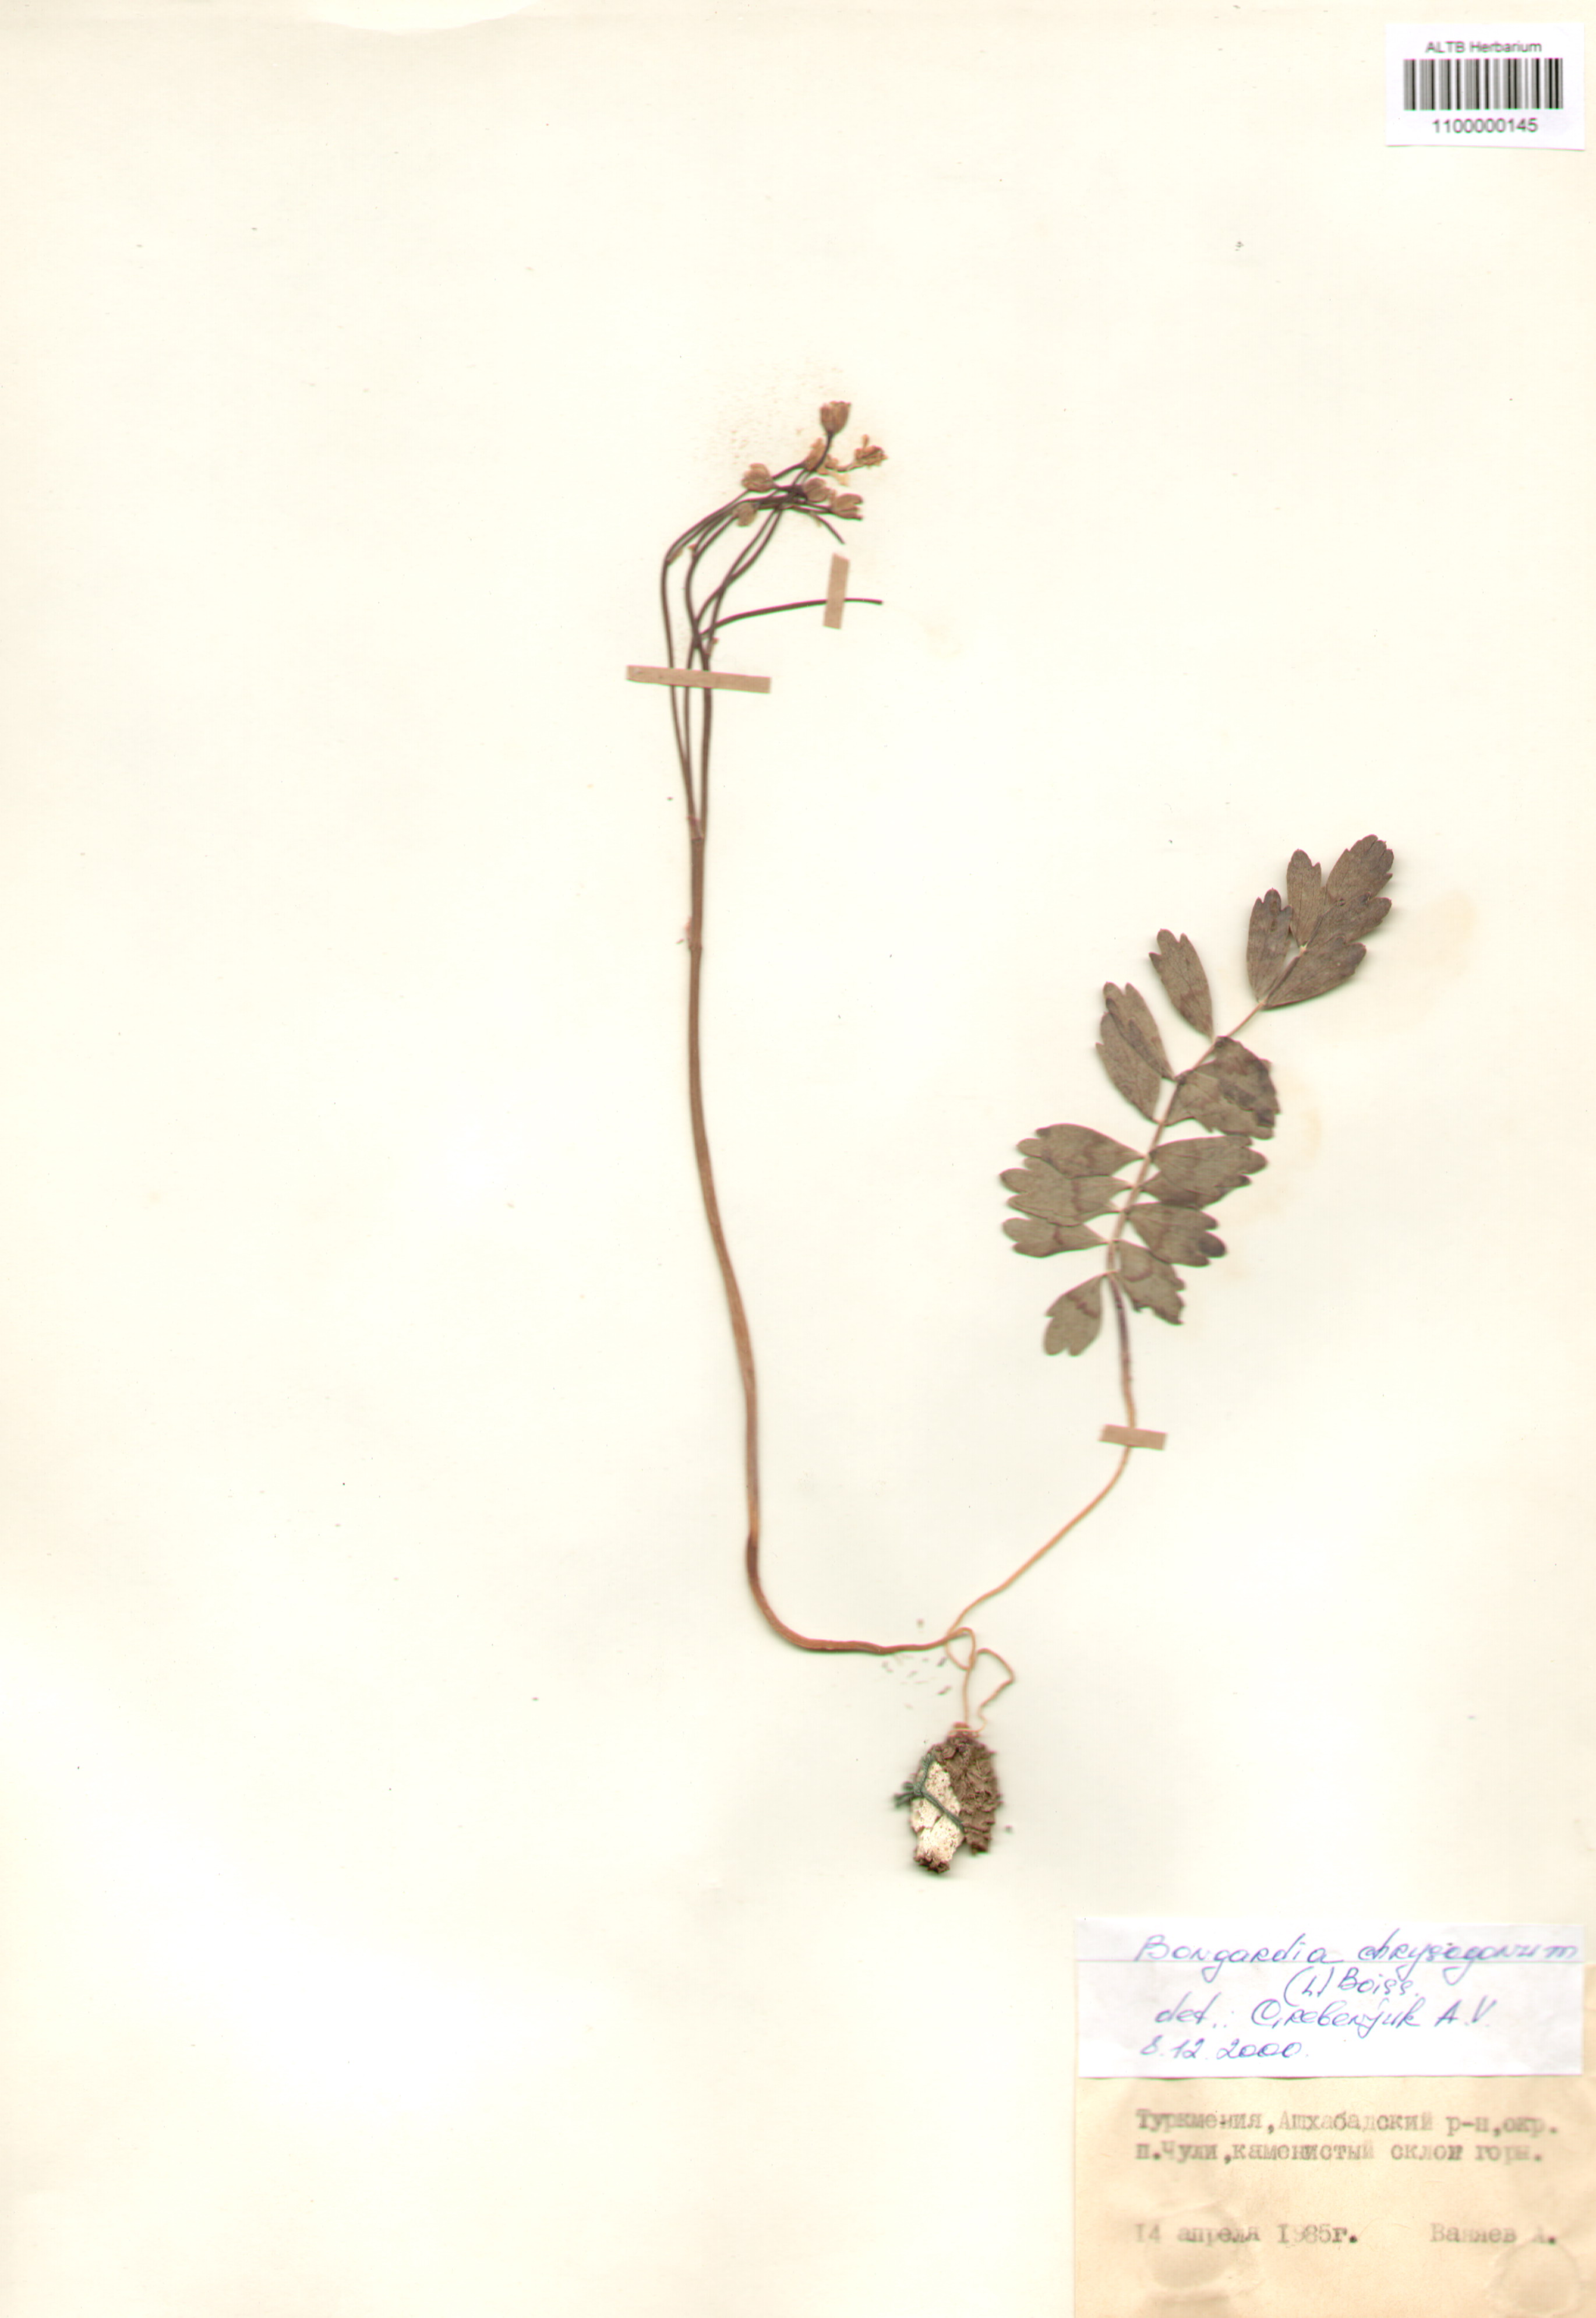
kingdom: Plantae
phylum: Tracheophyta
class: Magnoliopsida
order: Ranunculales
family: Berberidaceae
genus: Bongardia
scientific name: Bongardia chrysogonum
